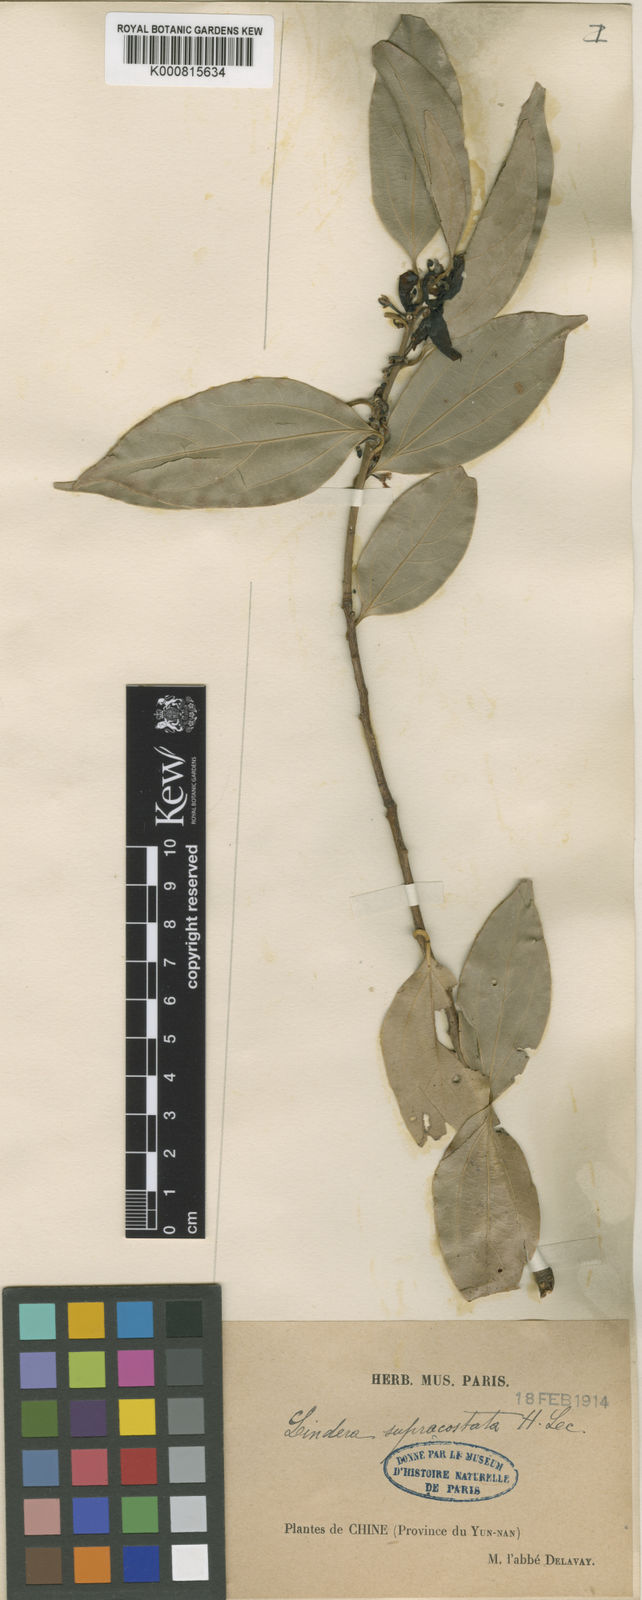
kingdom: Plantae
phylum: Tracheophyta
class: Magnoliopsida
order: Laurales
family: Lauraceae
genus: Lindera
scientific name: Lindera supracostata
